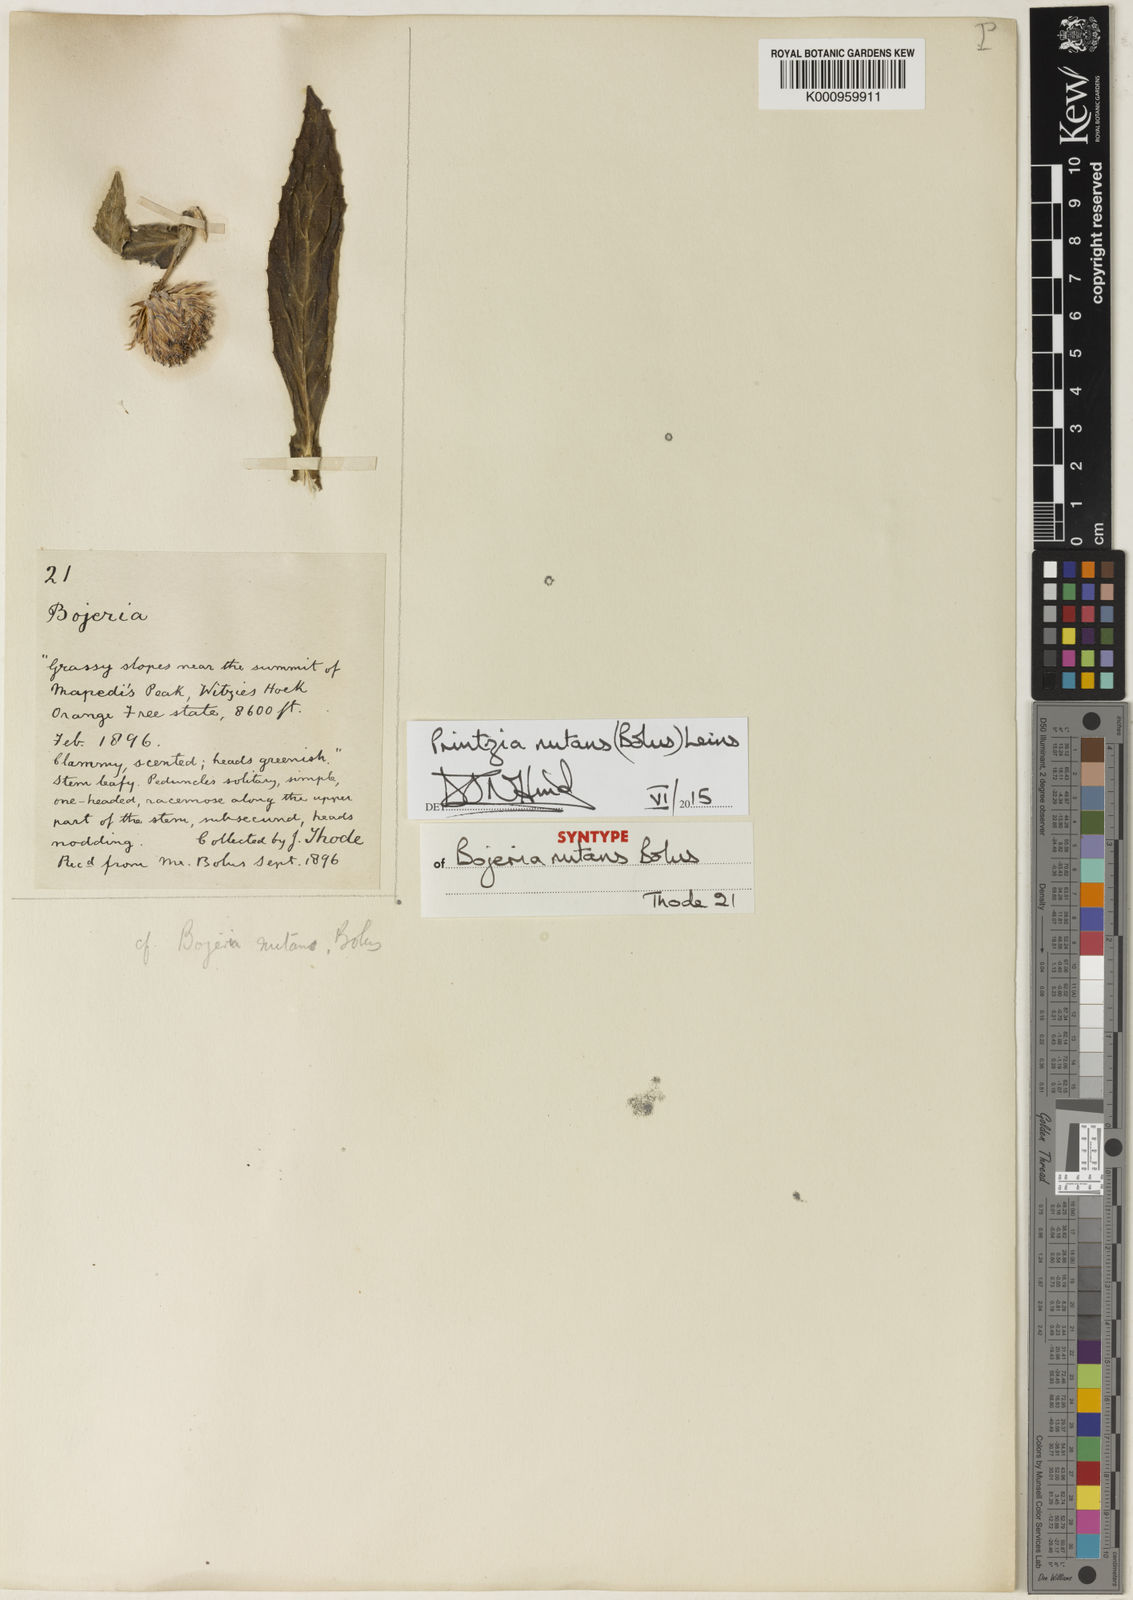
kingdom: Plantae
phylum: Tracheophyta
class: Magnoliopsida
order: Asterales
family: Asteraceae
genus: Printzia
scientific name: Printzia nutans
